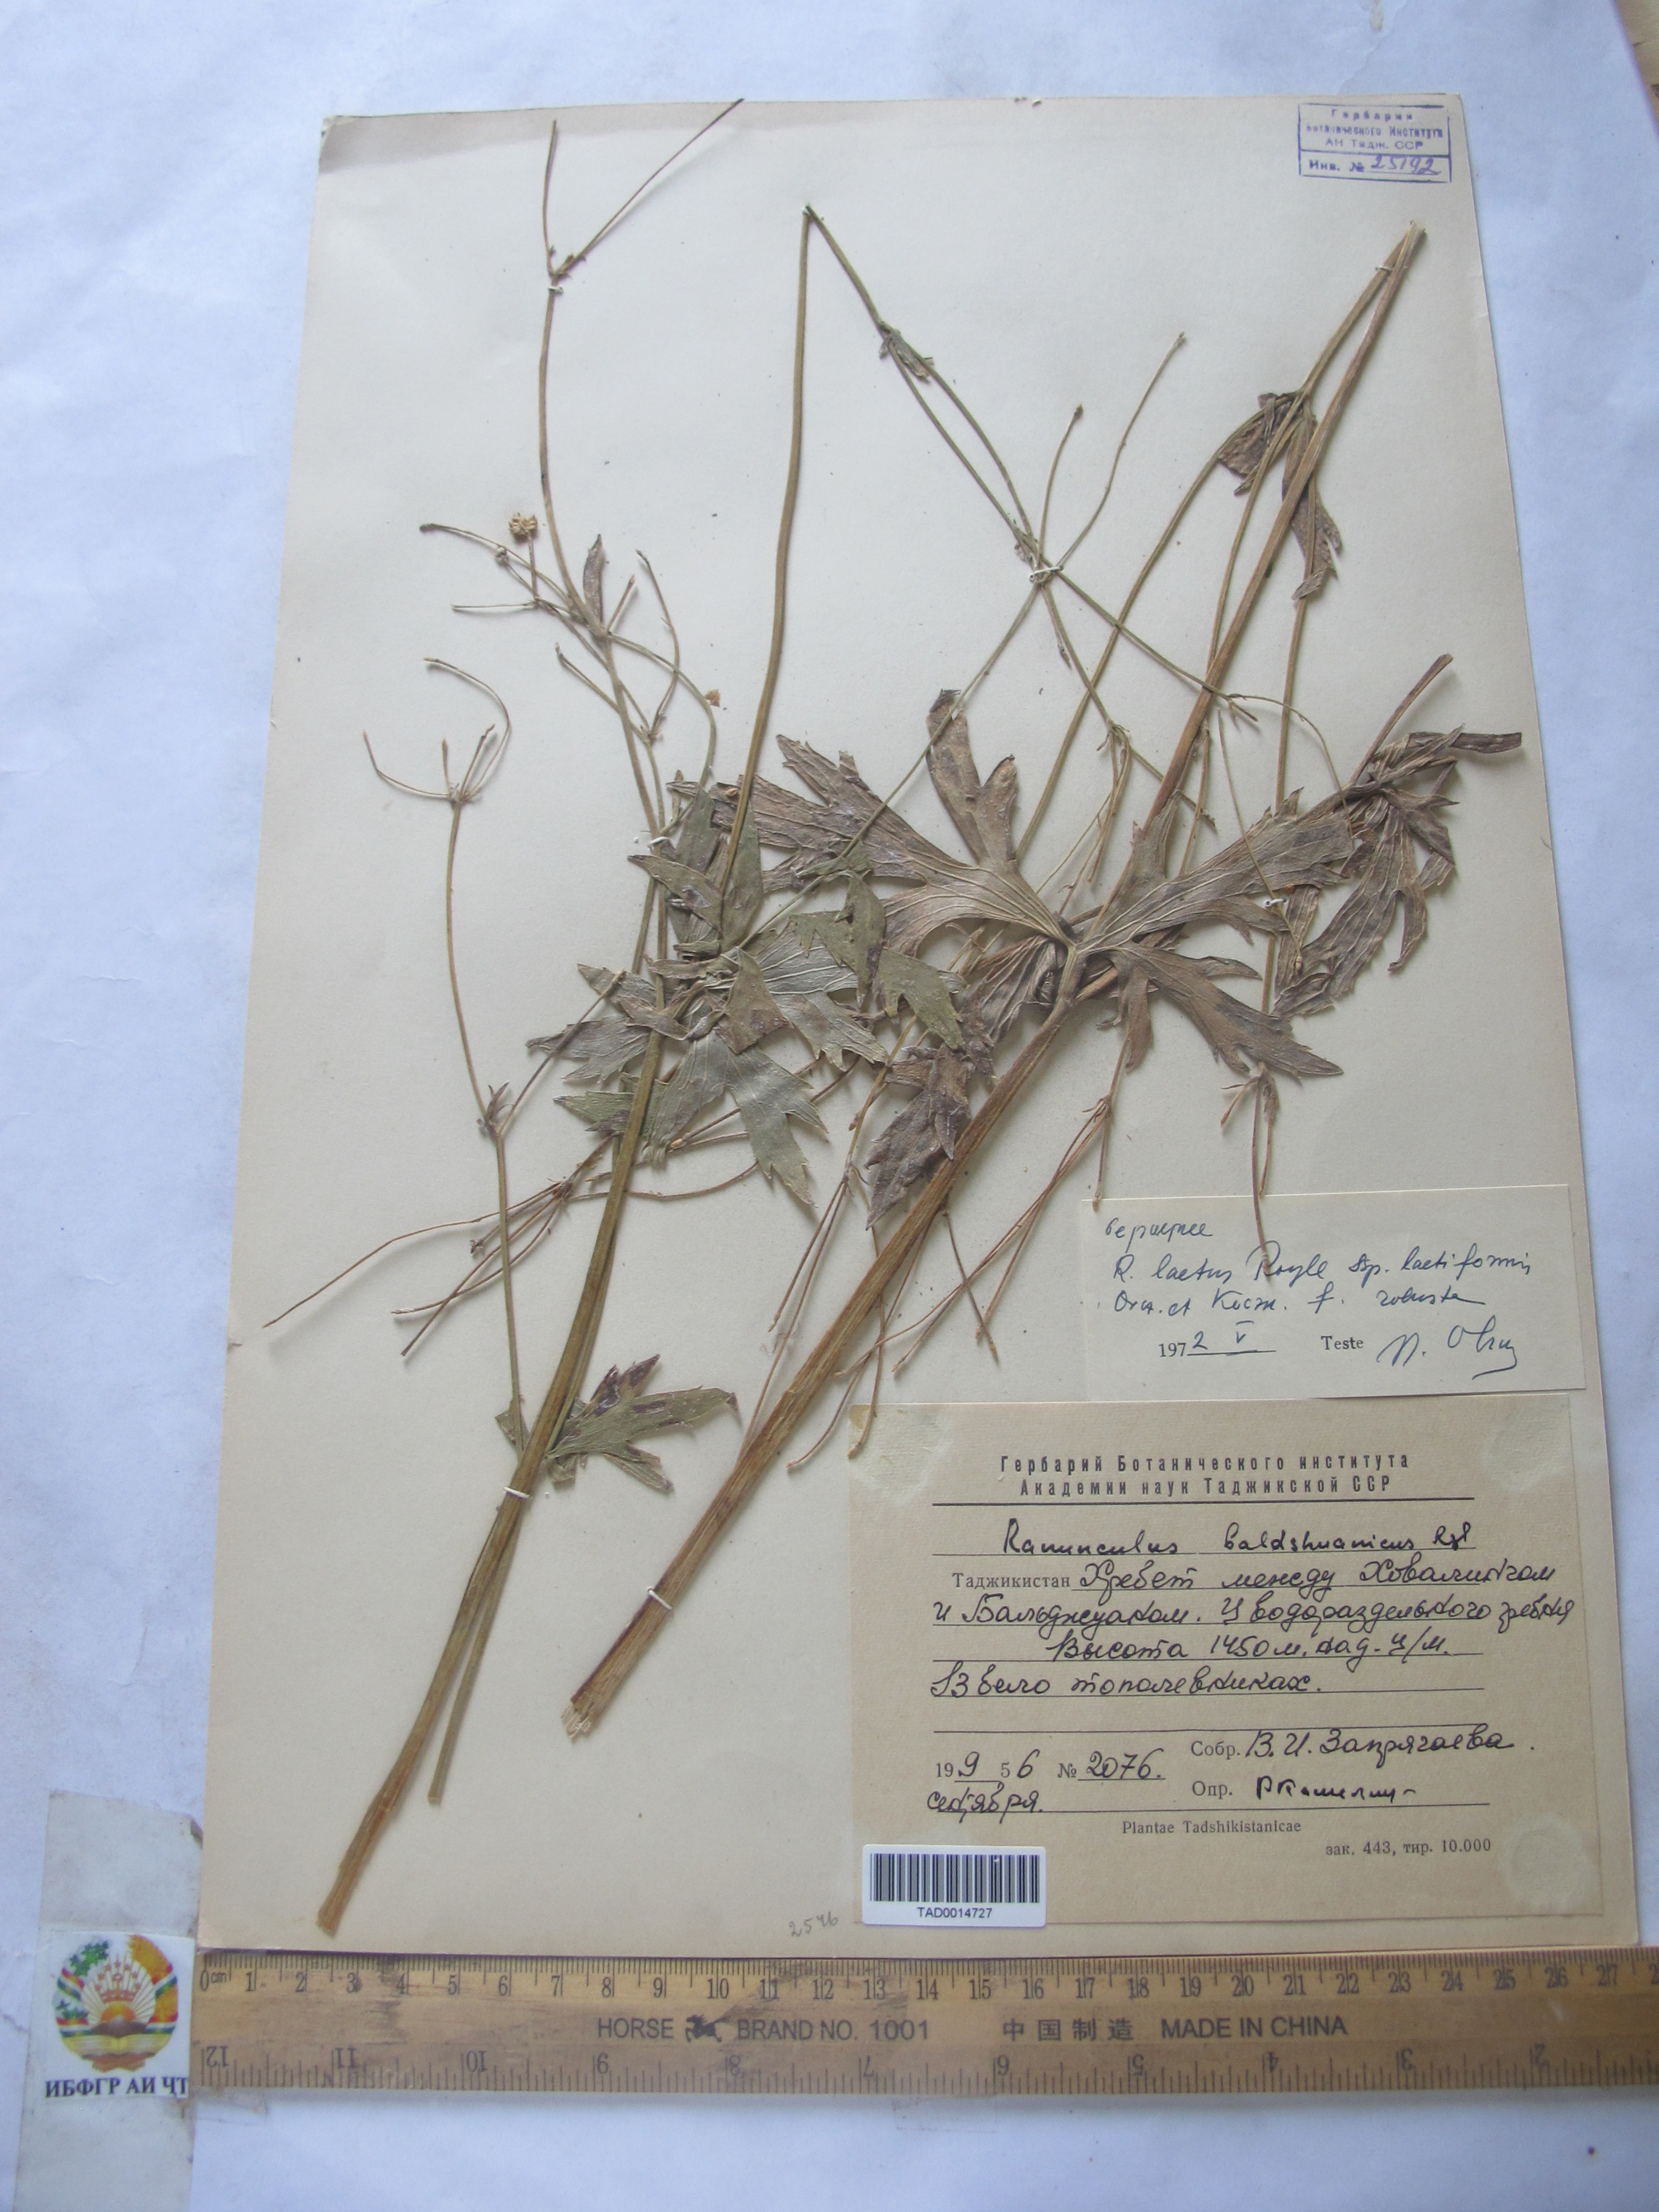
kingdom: Plantae
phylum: Tracheophyta
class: Magnoliopsida
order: Ranunculales
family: Ranunculaceae
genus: Ranunculus
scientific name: Ranunculus baldshuanicus
